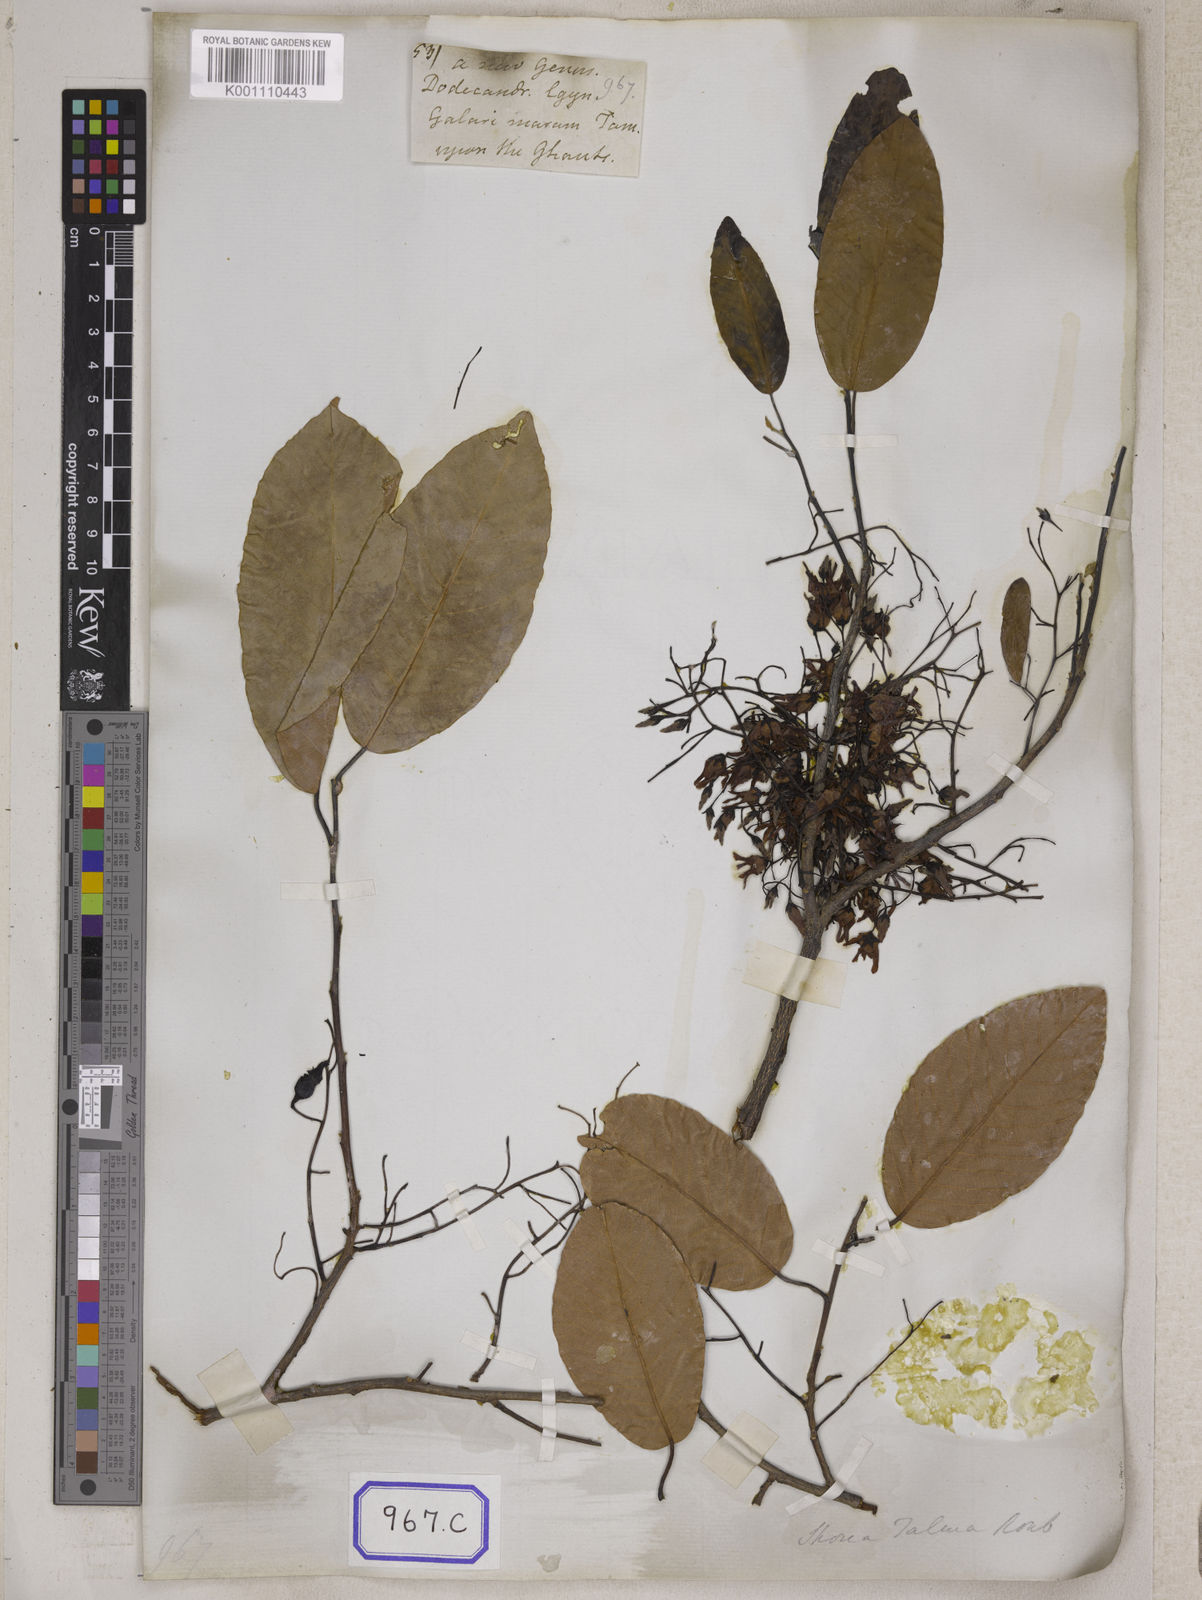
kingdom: Plantae
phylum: Tracheophyta
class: Magnoliopsida
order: Malvales
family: Dipterocarpaceae
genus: Shorea
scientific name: Shorea
